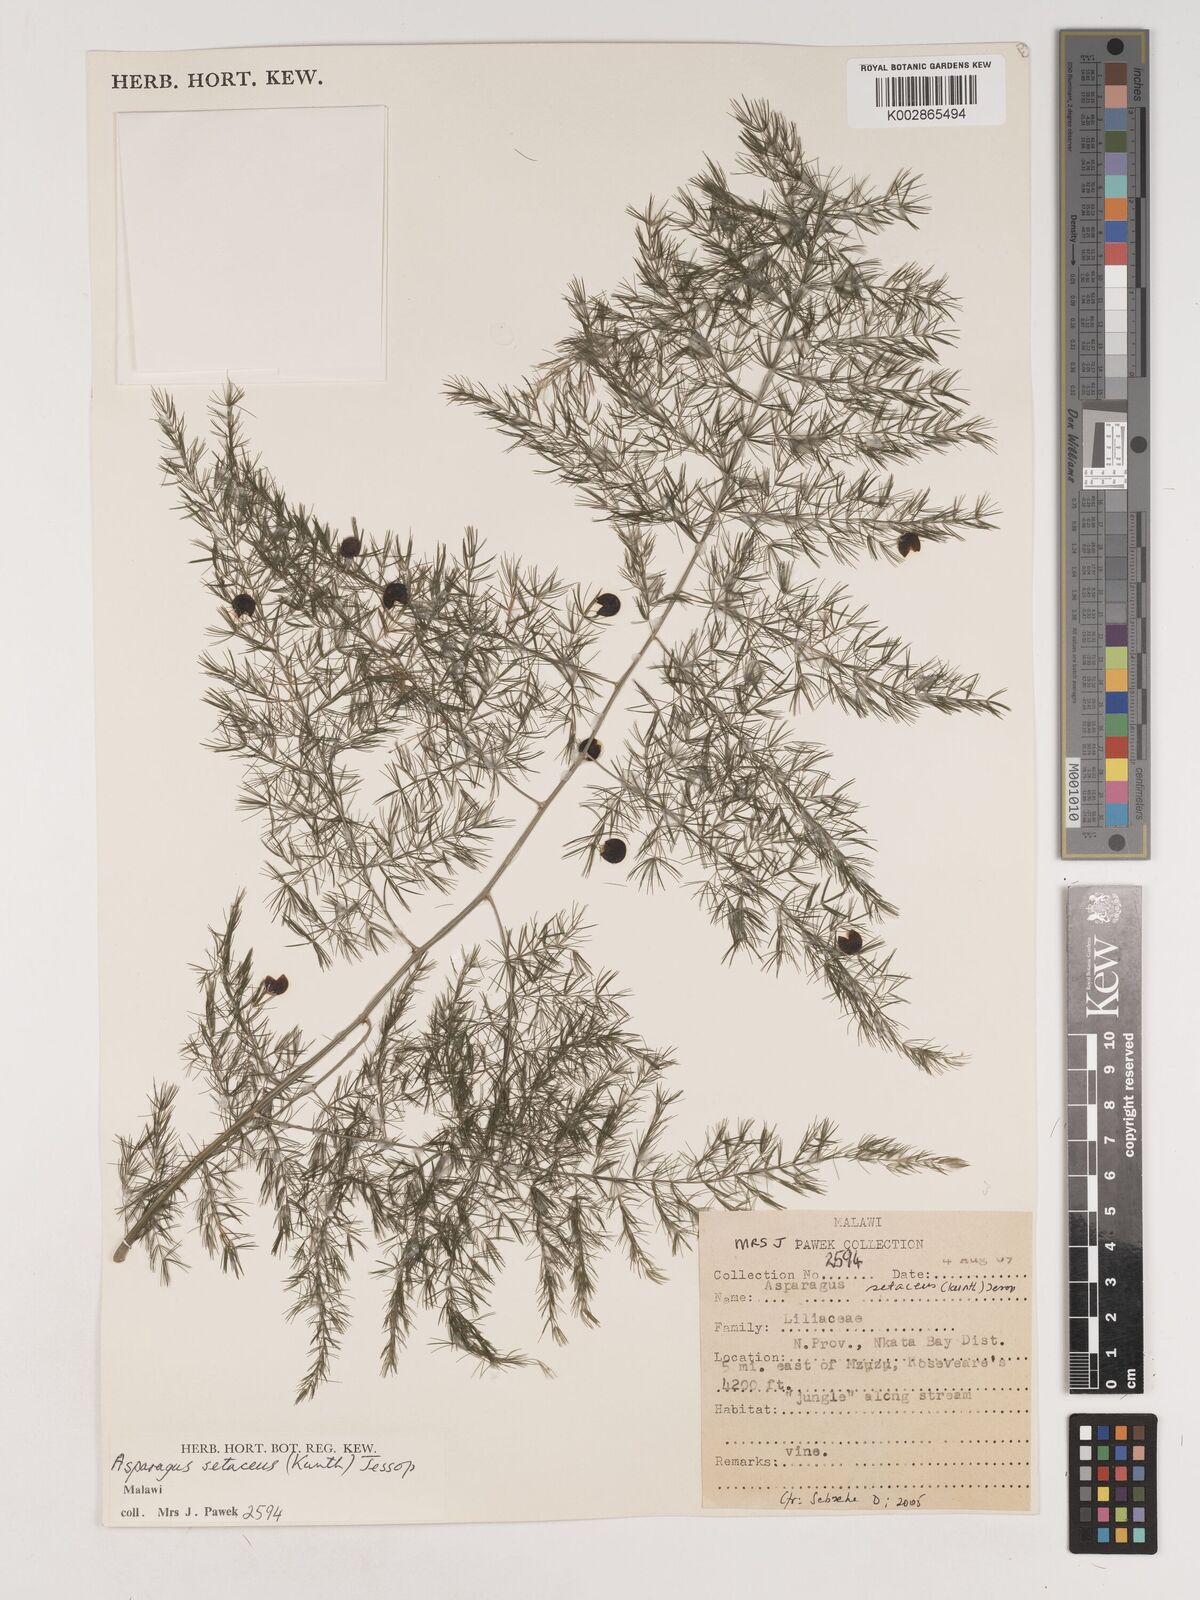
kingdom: Plantae
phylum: Tracheophyta
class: Liliopsida
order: Asparagales
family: Asparagaceae
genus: Asparagus
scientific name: Asparagus setaceus
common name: Common asparagus fern
